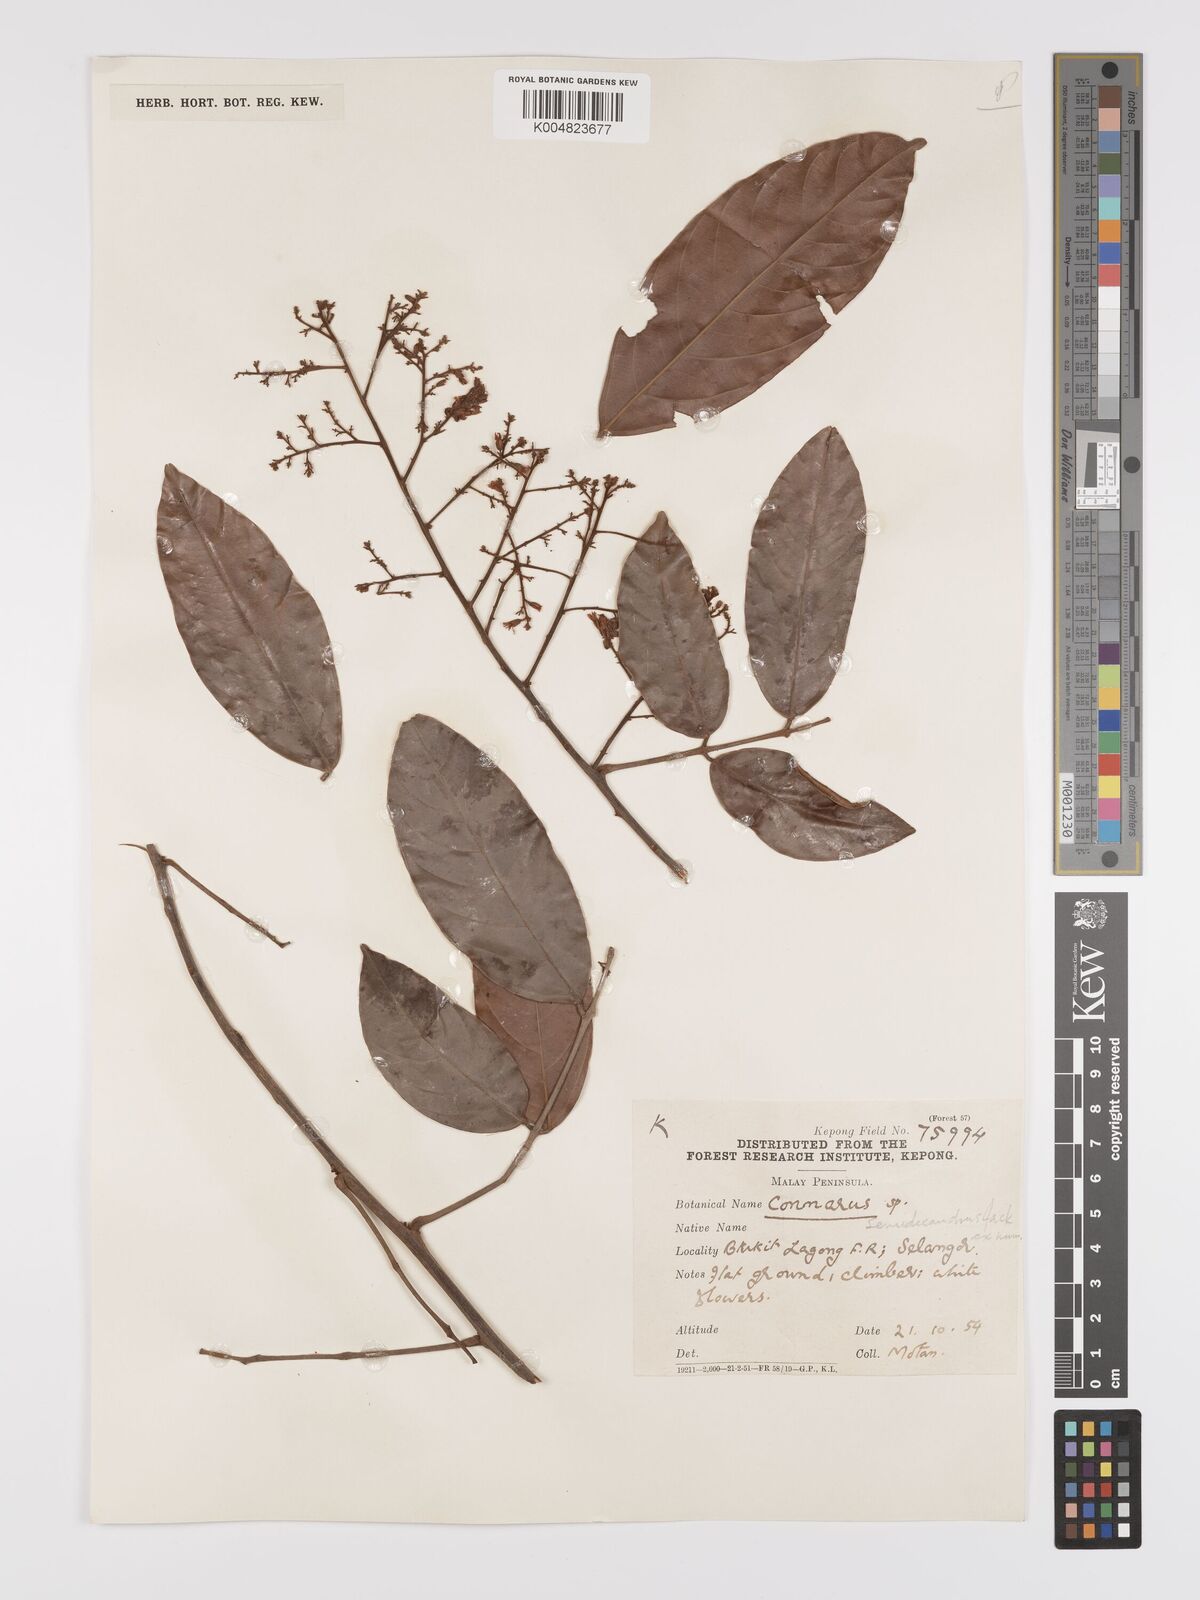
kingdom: Plantae
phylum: Tracheophyta
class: Magnoliopsida
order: Oxalidales
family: Connaraceae
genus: Connarus
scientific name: Connarus semidecandrus
